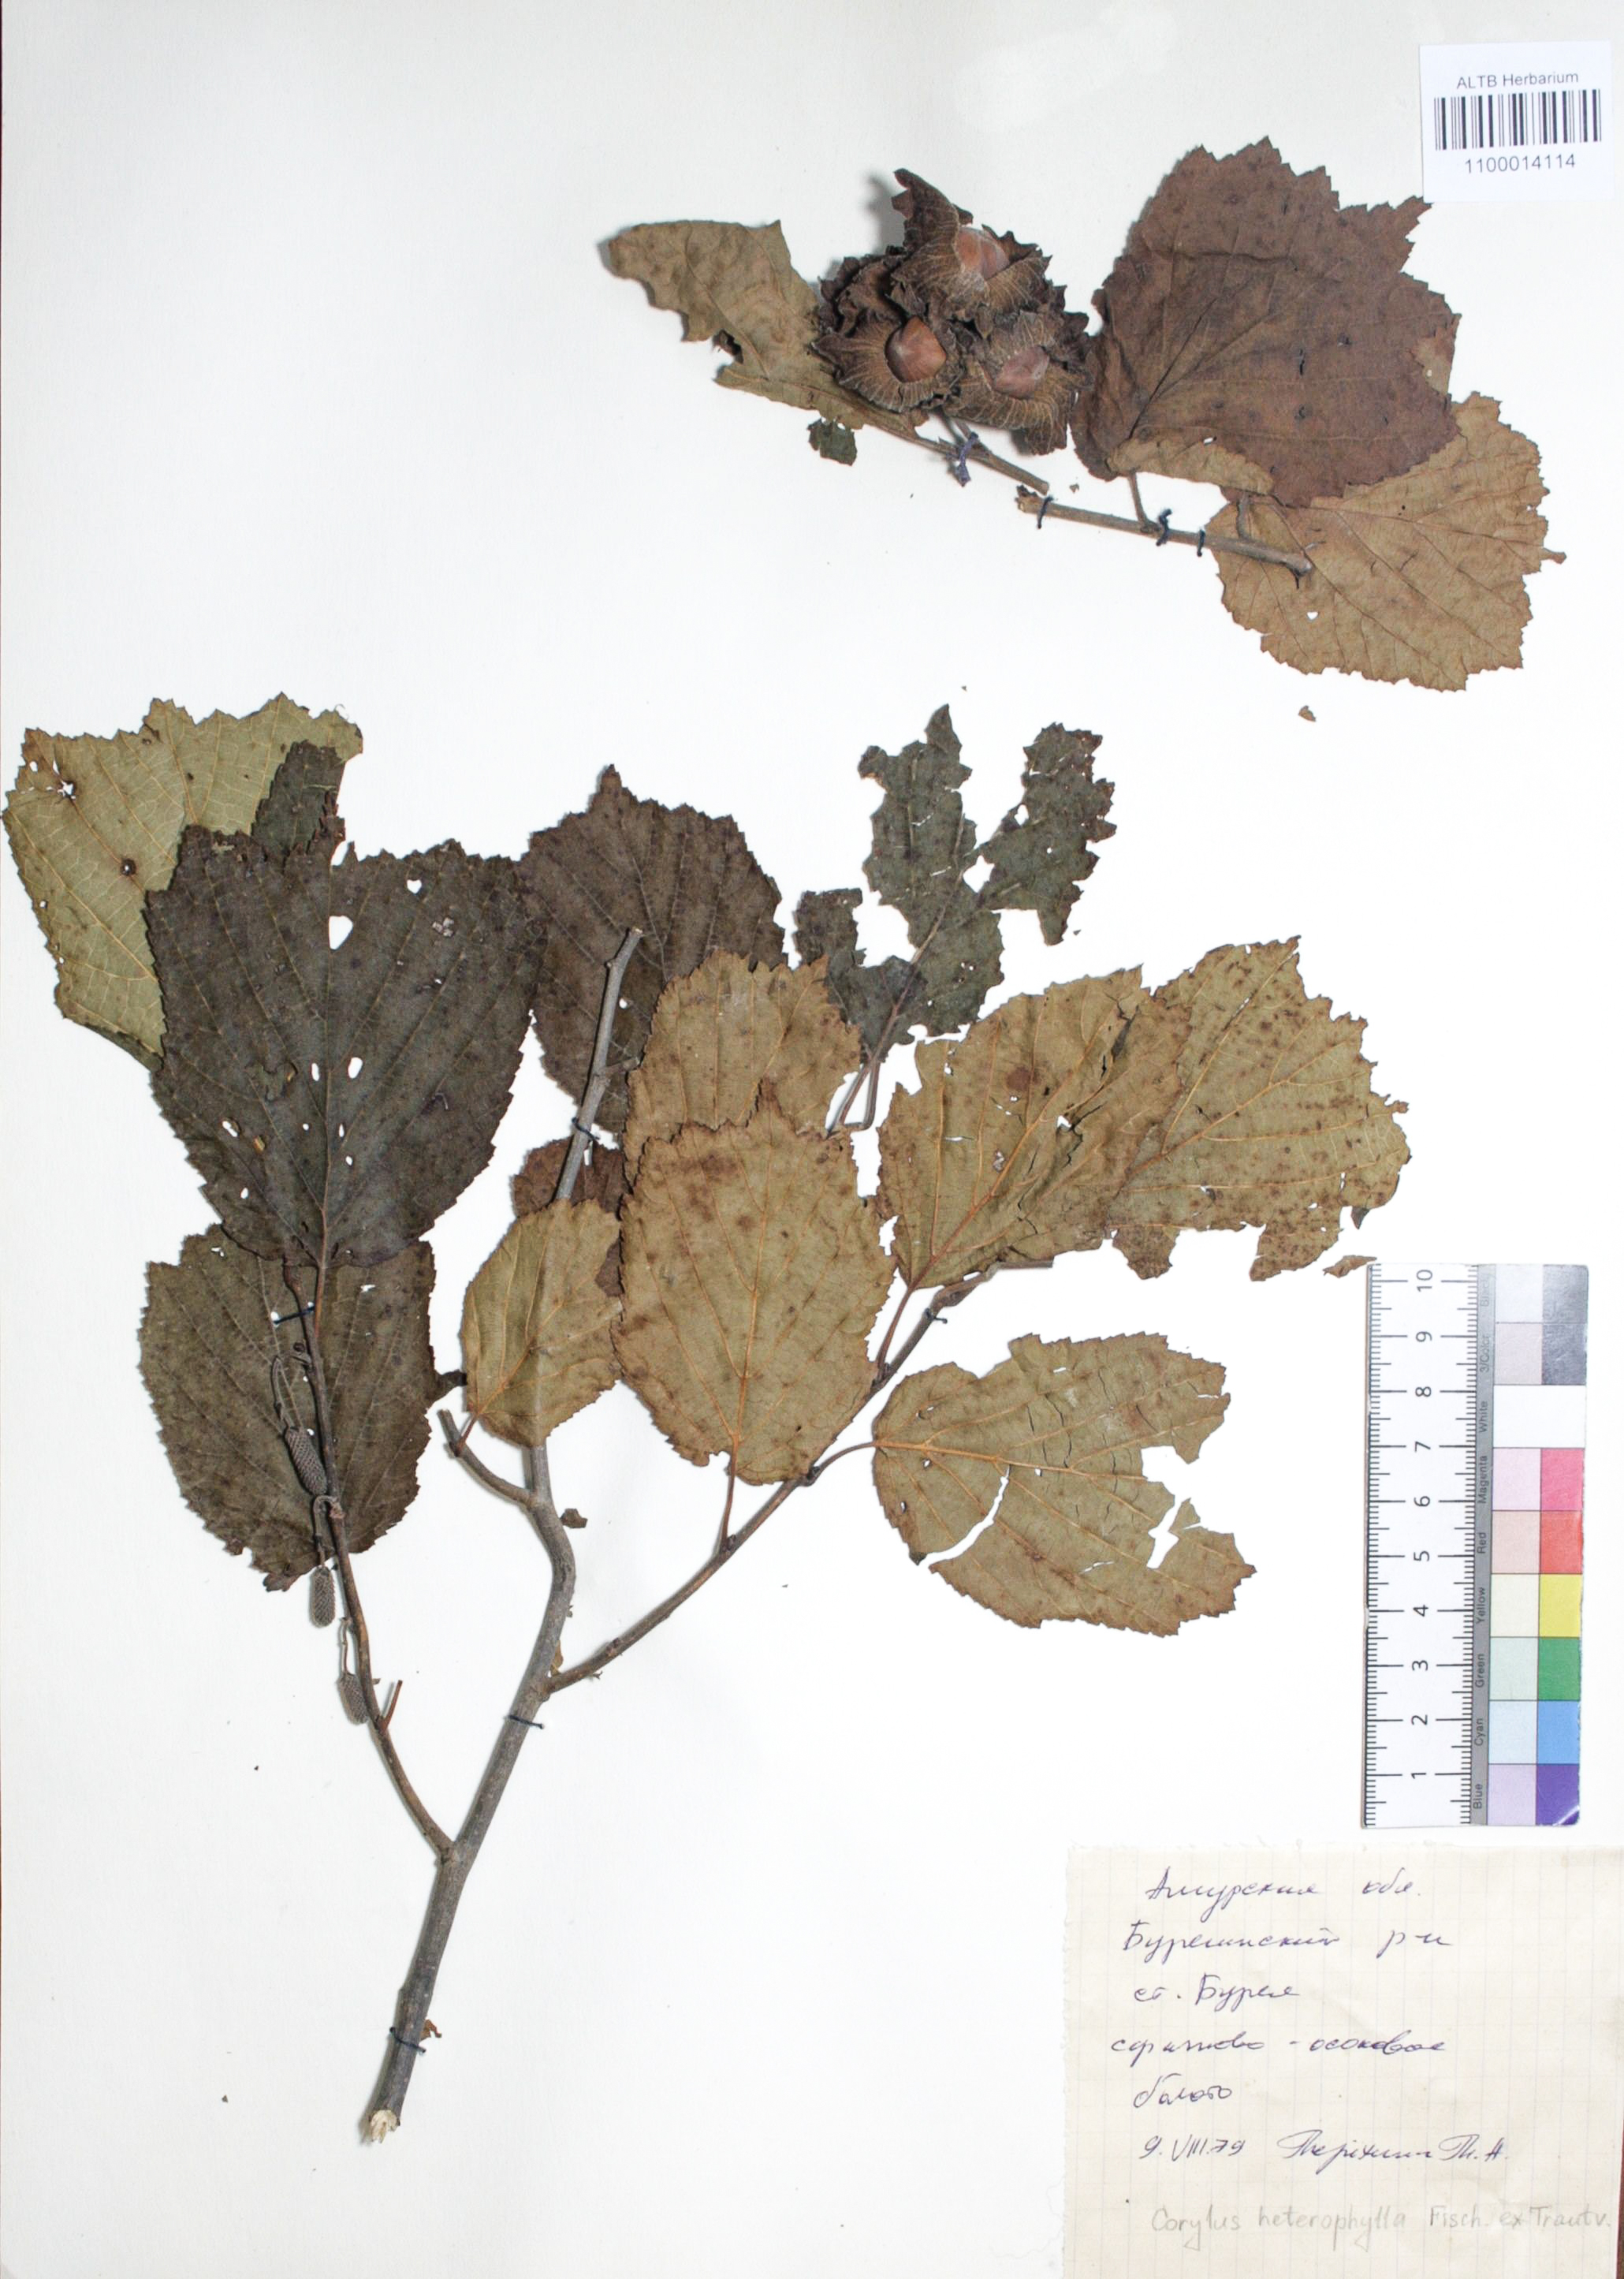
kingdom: Plantae
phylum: Tracheophyta
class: Magnoliopsida
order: Fagales
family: Betulaceae
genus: Corylus
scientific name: Corylus heterophylla
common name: Siberian hazelnut
